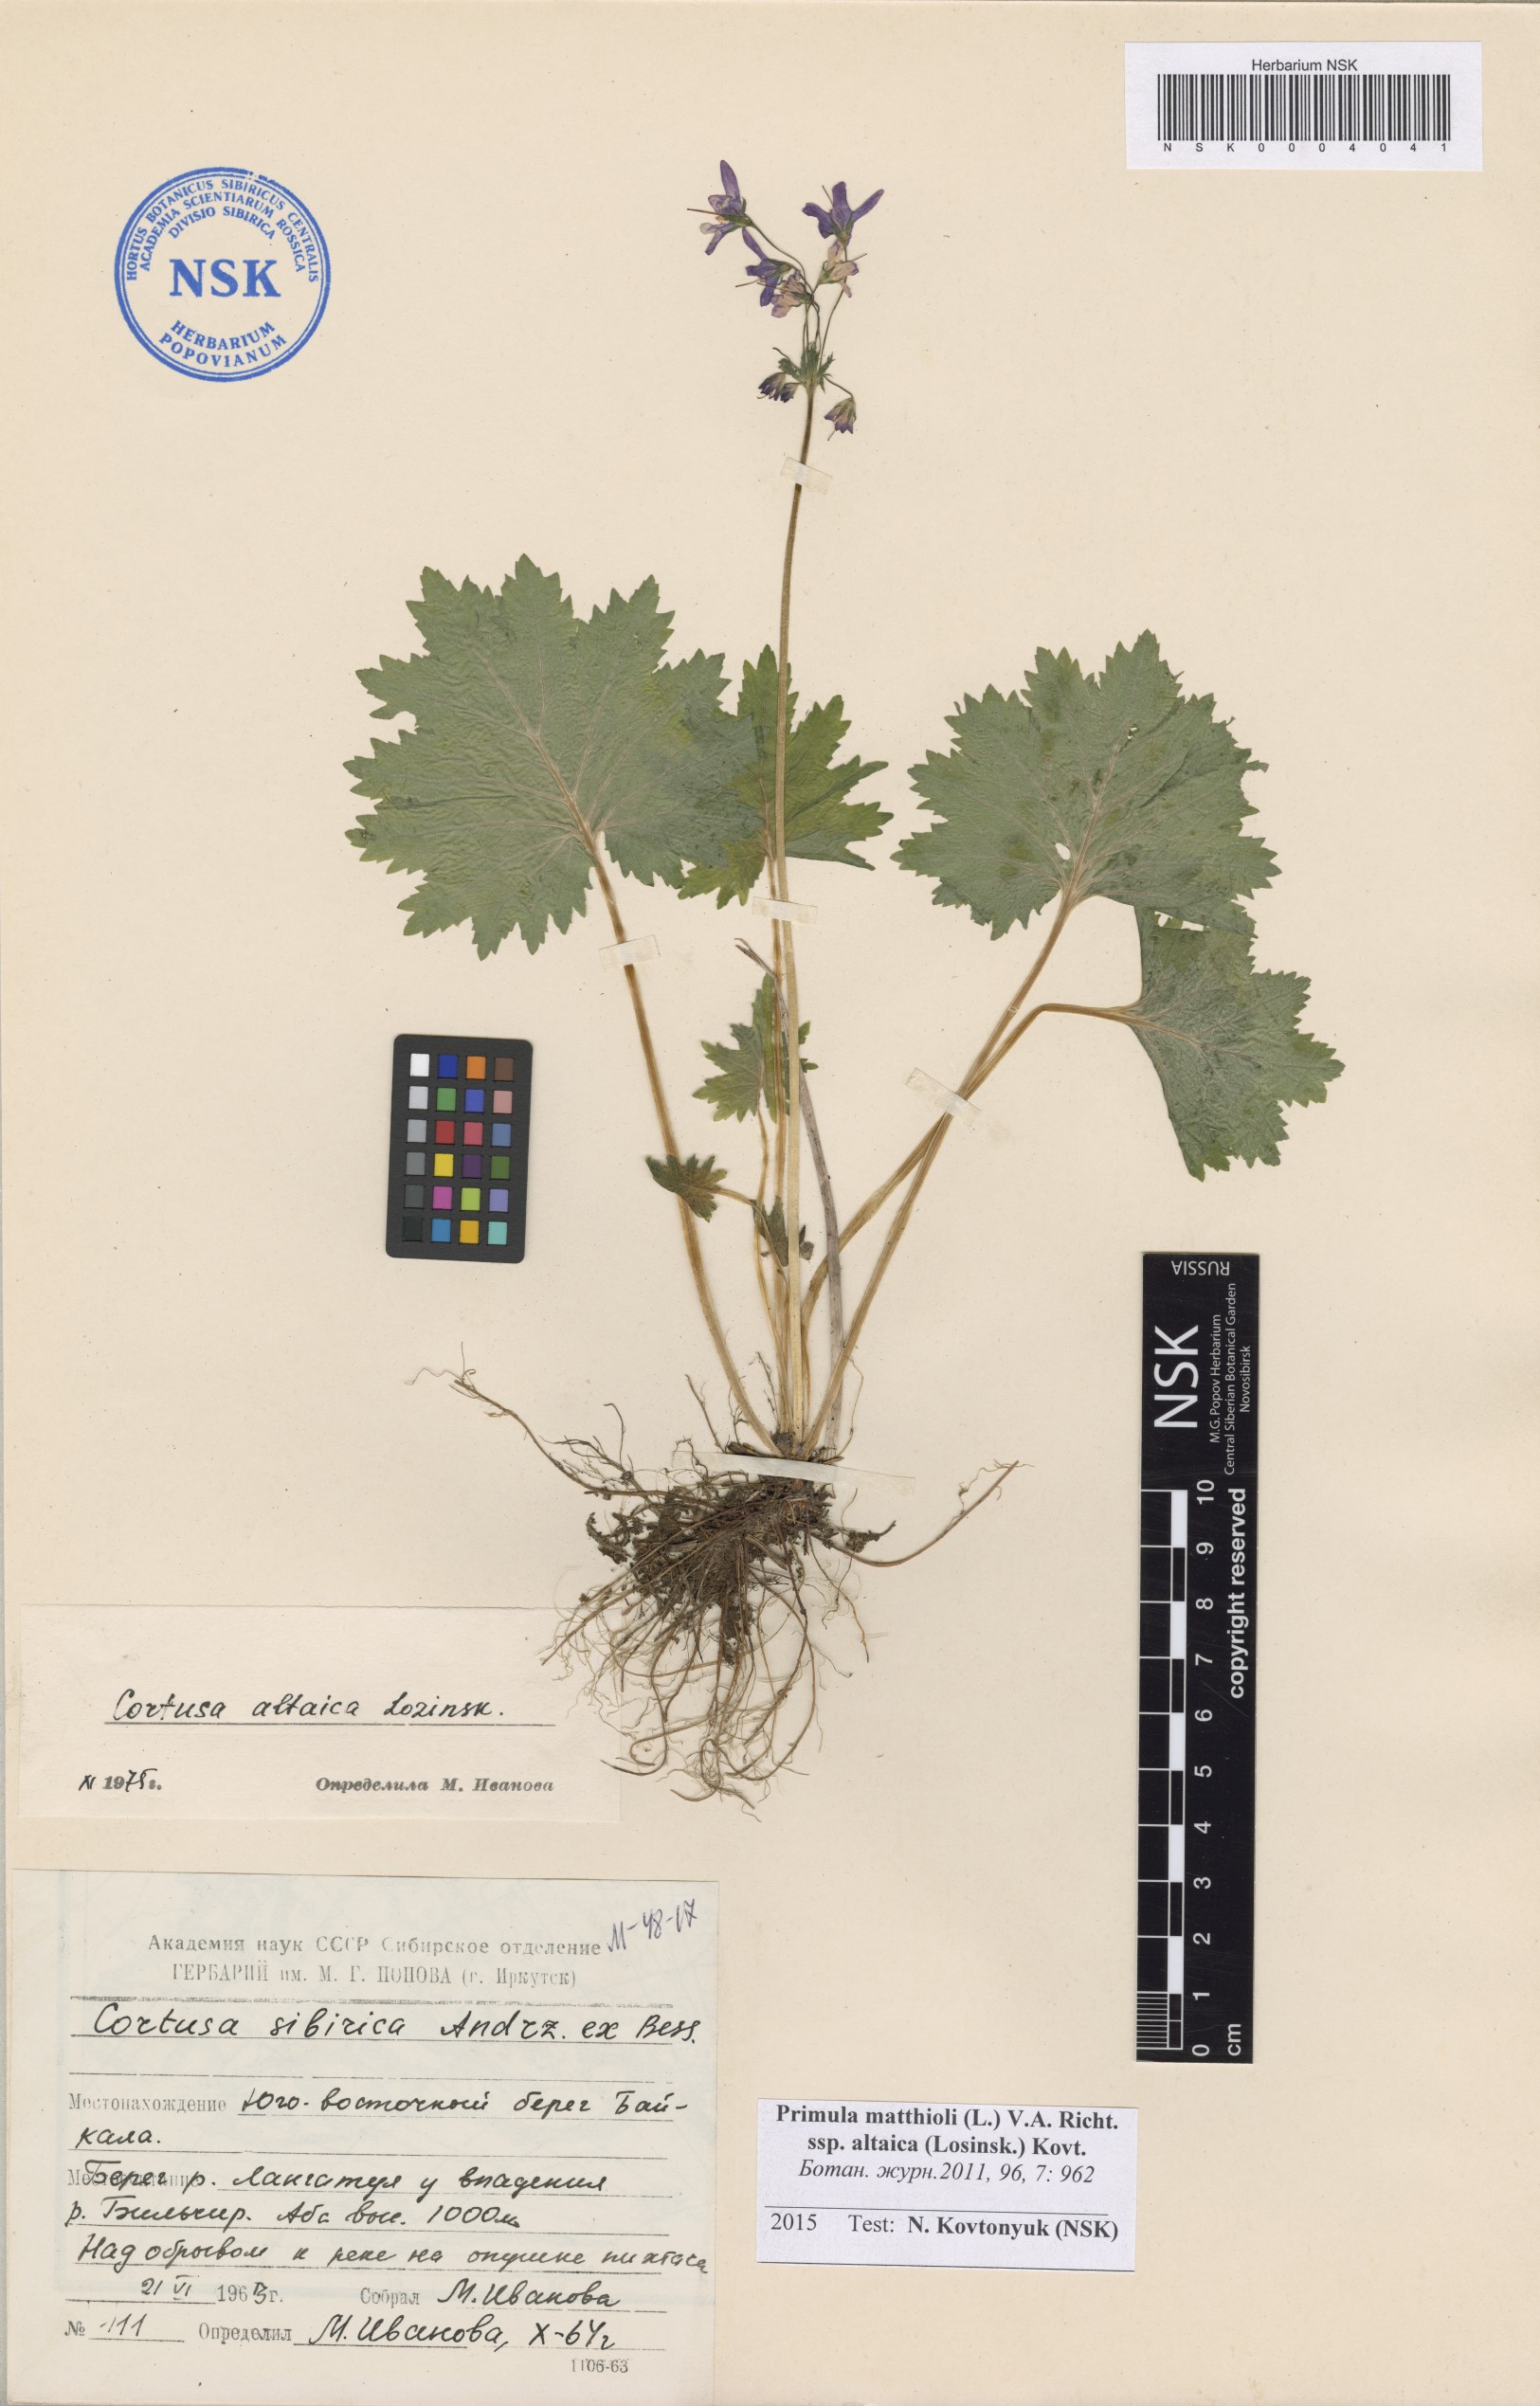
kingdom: Plantae
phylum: Tracheophyta
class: Magnoliopsida
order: Ericales
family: Primulaceae
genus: Primula
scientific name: Primula matthioli
